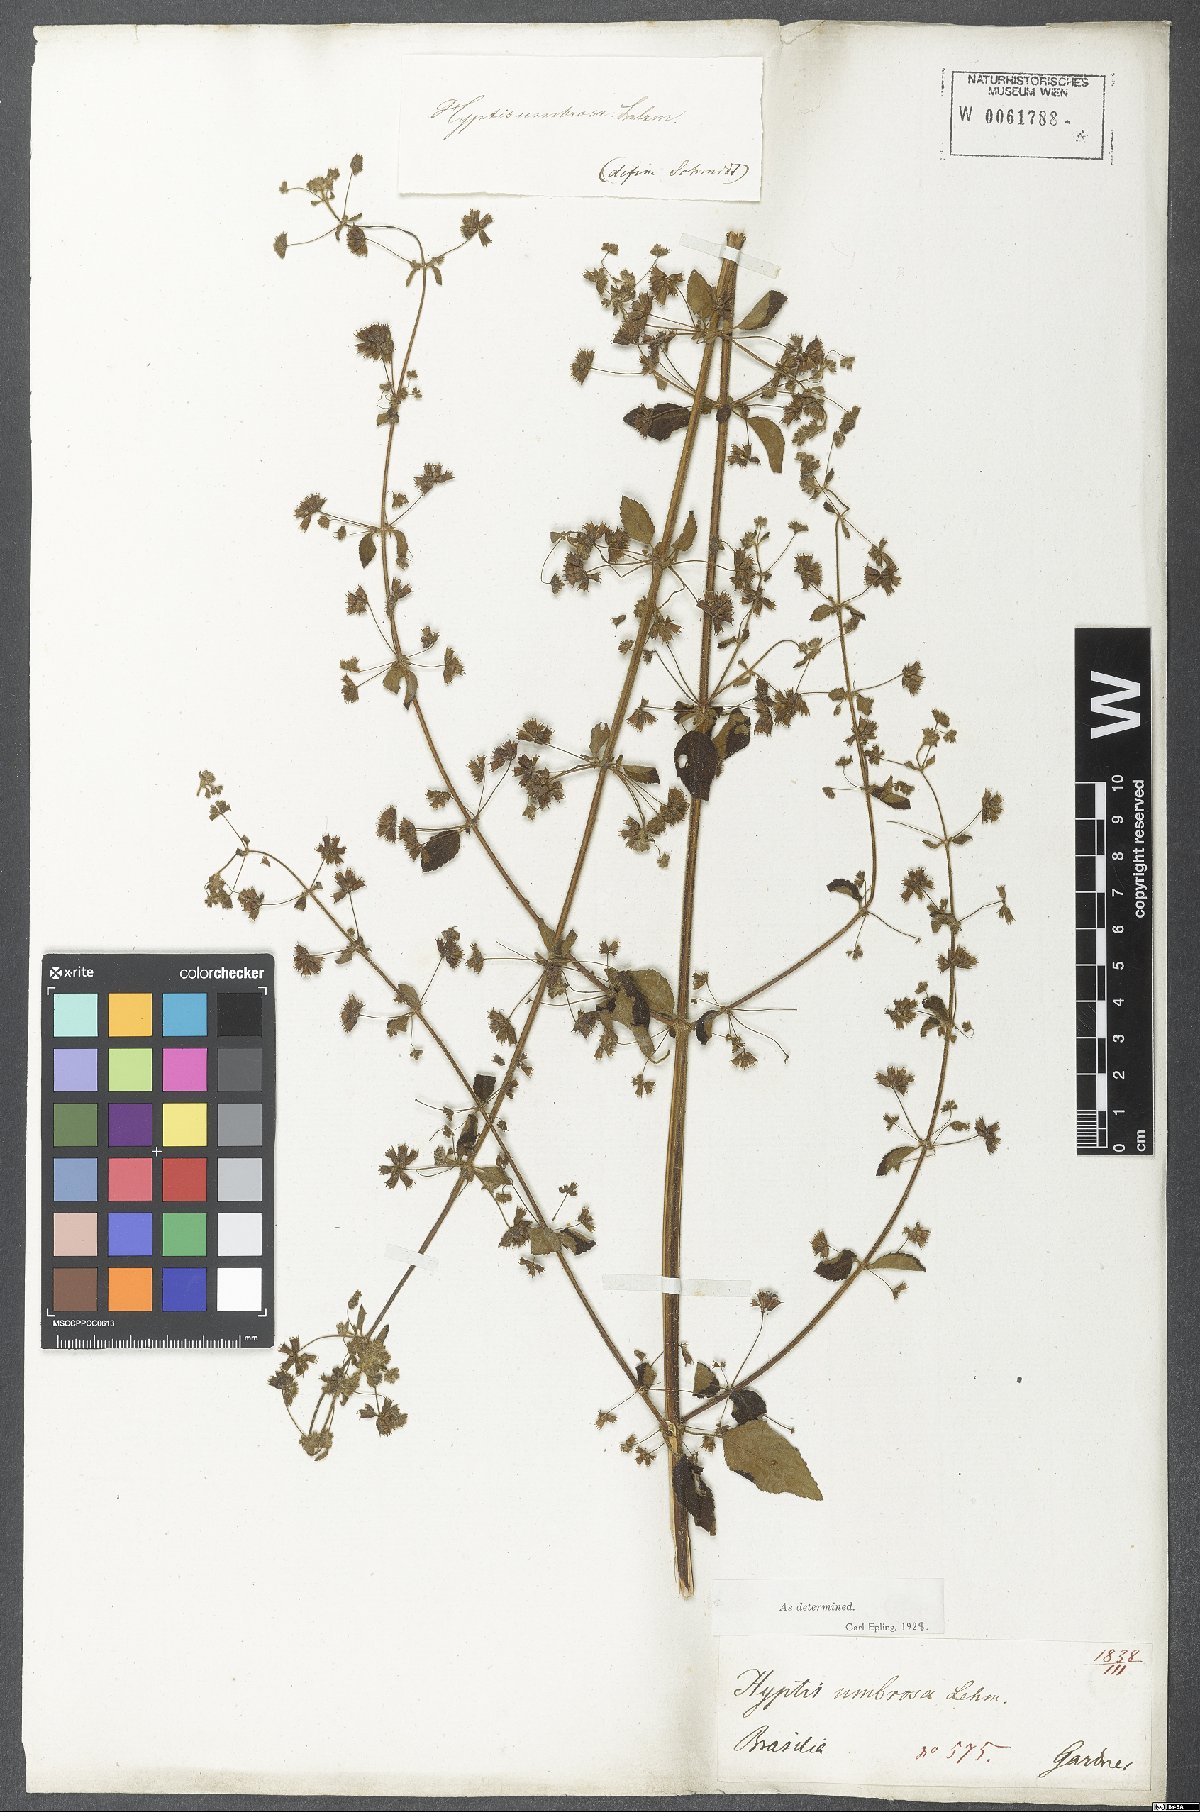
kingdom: Plantae
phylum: Tracheophyta
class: Magnoliopsida
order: Lamiales
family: Lamiaceae
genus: Mesosphaerum
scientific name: Mesosphaerum sidifolium
